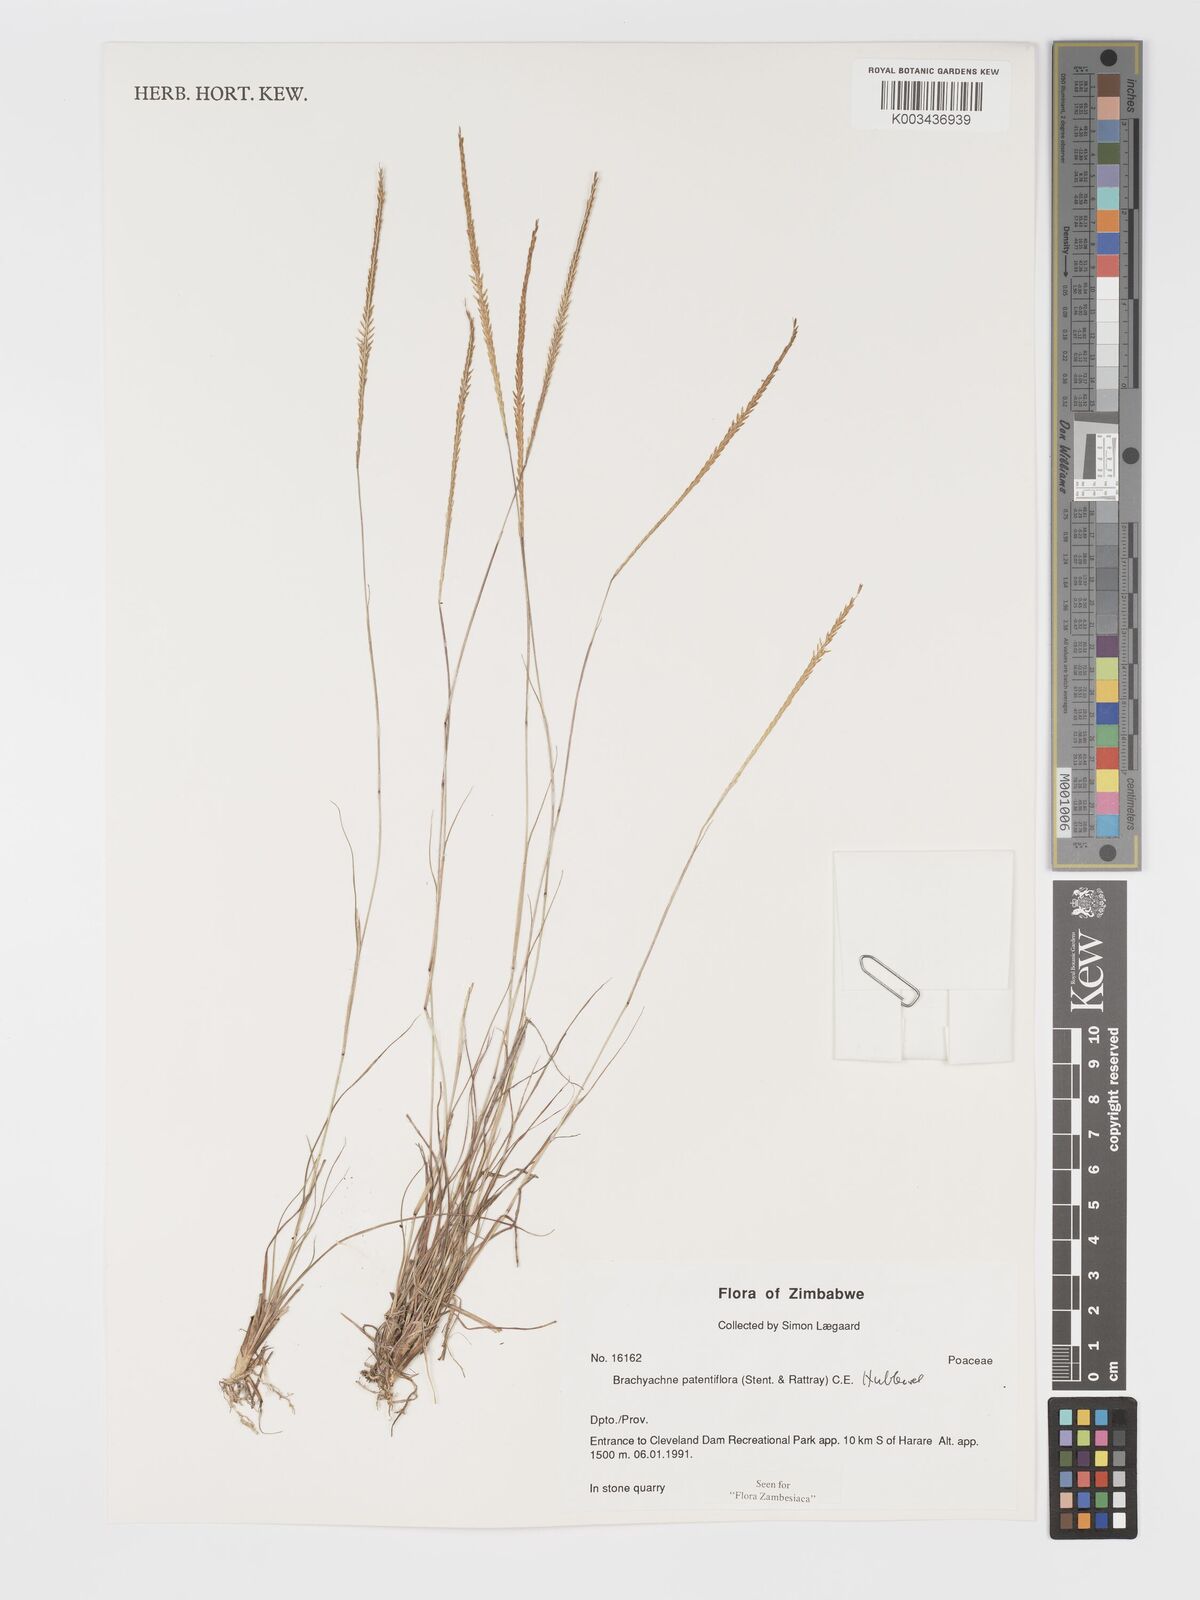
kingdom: Plantae
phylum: Tracheophyta
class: Liliopsida
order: Poales
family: Poaceae
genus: Micrachne
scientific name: Micrachne patentiflora
